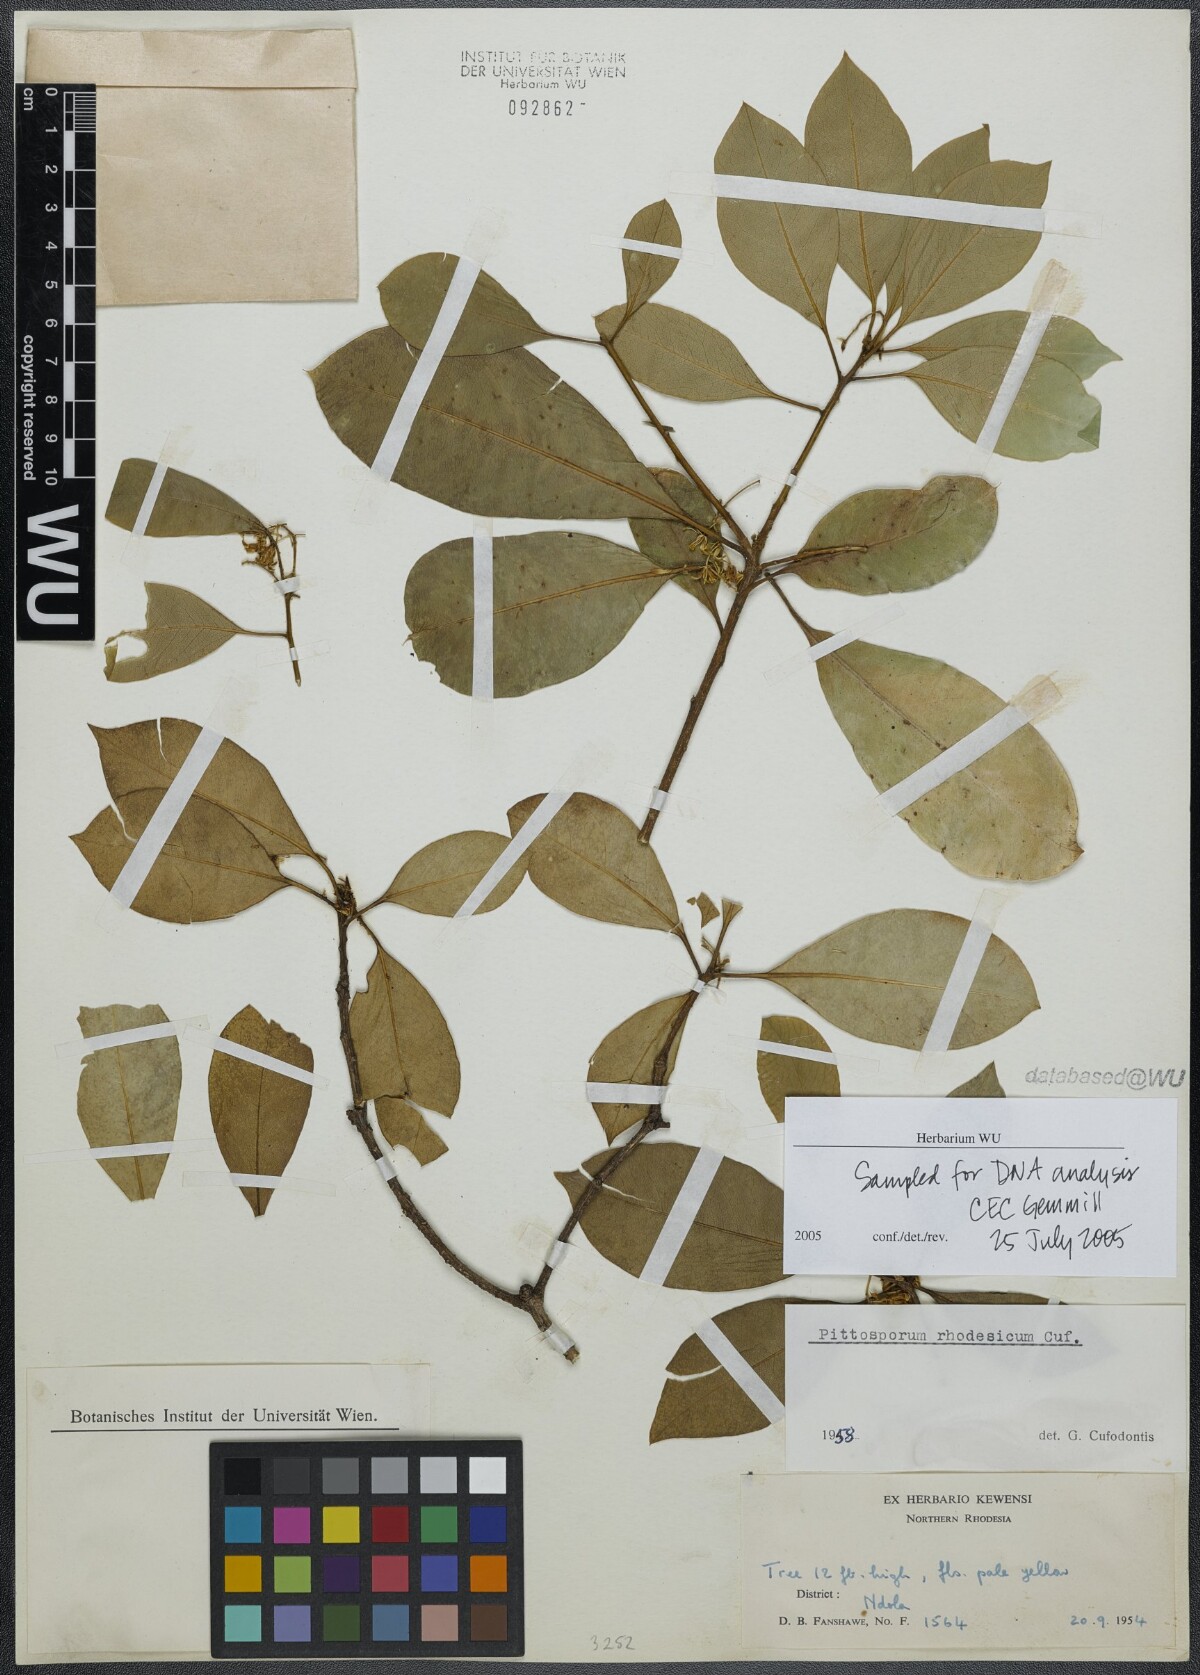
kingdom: Plantae
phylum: Tracheophyta
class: Magnoliopsida
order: Apiales
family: Pittosporaceae
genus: Pittosporum
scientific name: Pittosporum viridiflorum
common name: Cape cheesewood
